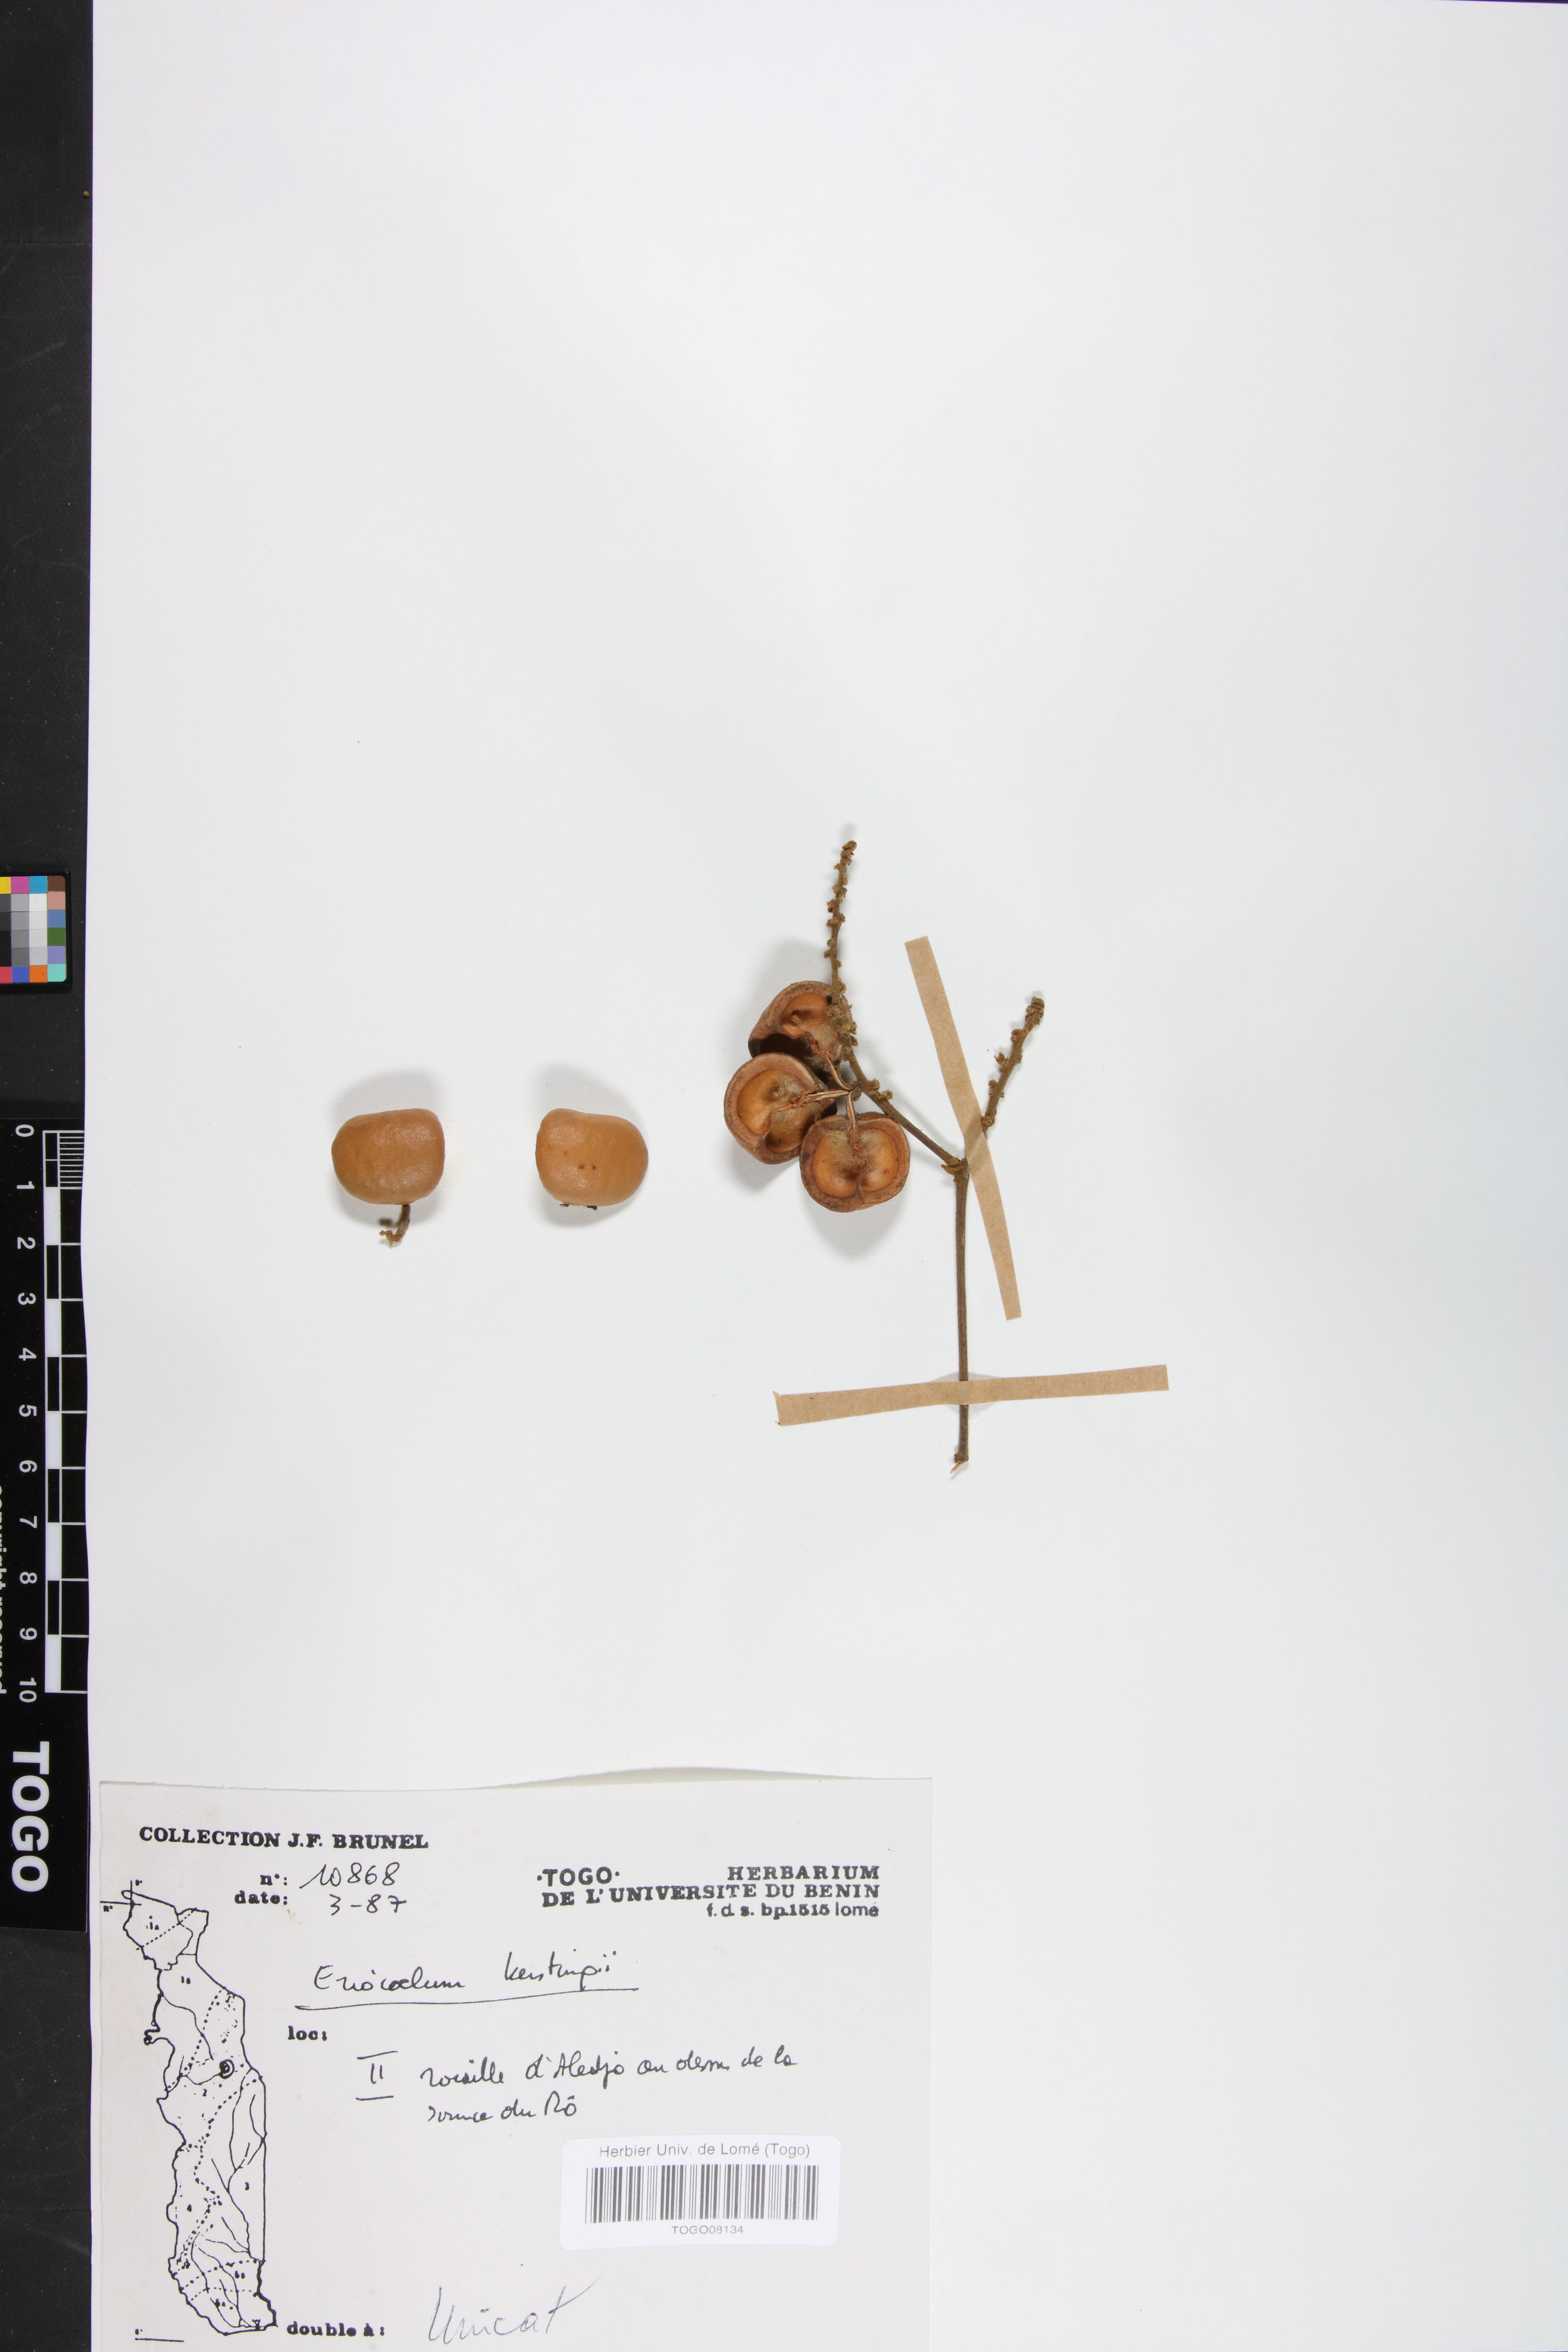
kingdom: Plantae
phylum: Tracheophyta
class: Magnoliopsida
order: Sapindales
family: Sapindaceae
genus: Eriocoelum
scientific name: Eriocoelum kerstingii
